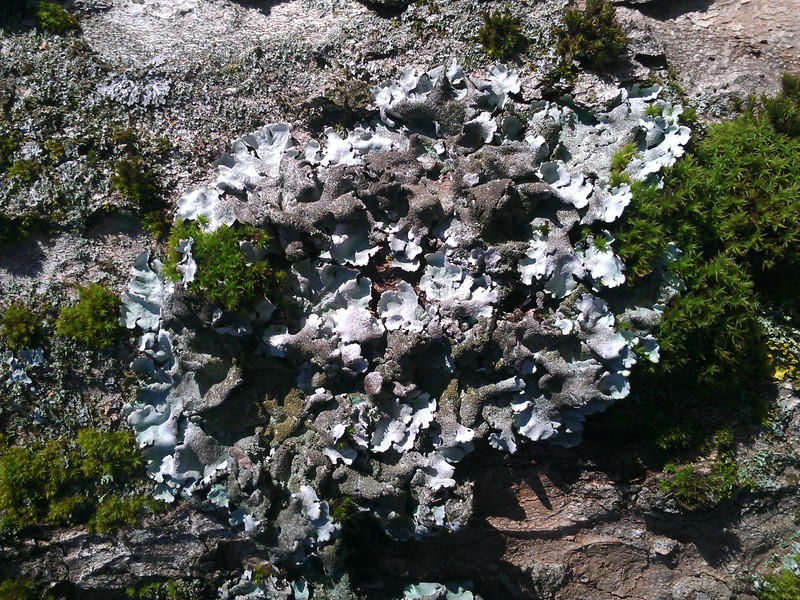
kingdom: Fungi
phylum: Ascomycota
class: Lecanoromycetes
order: Lecanorales
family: Parmeliaceae
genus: Parmelina
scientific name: Parmelina tiliacea
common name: Linden shield lichen
